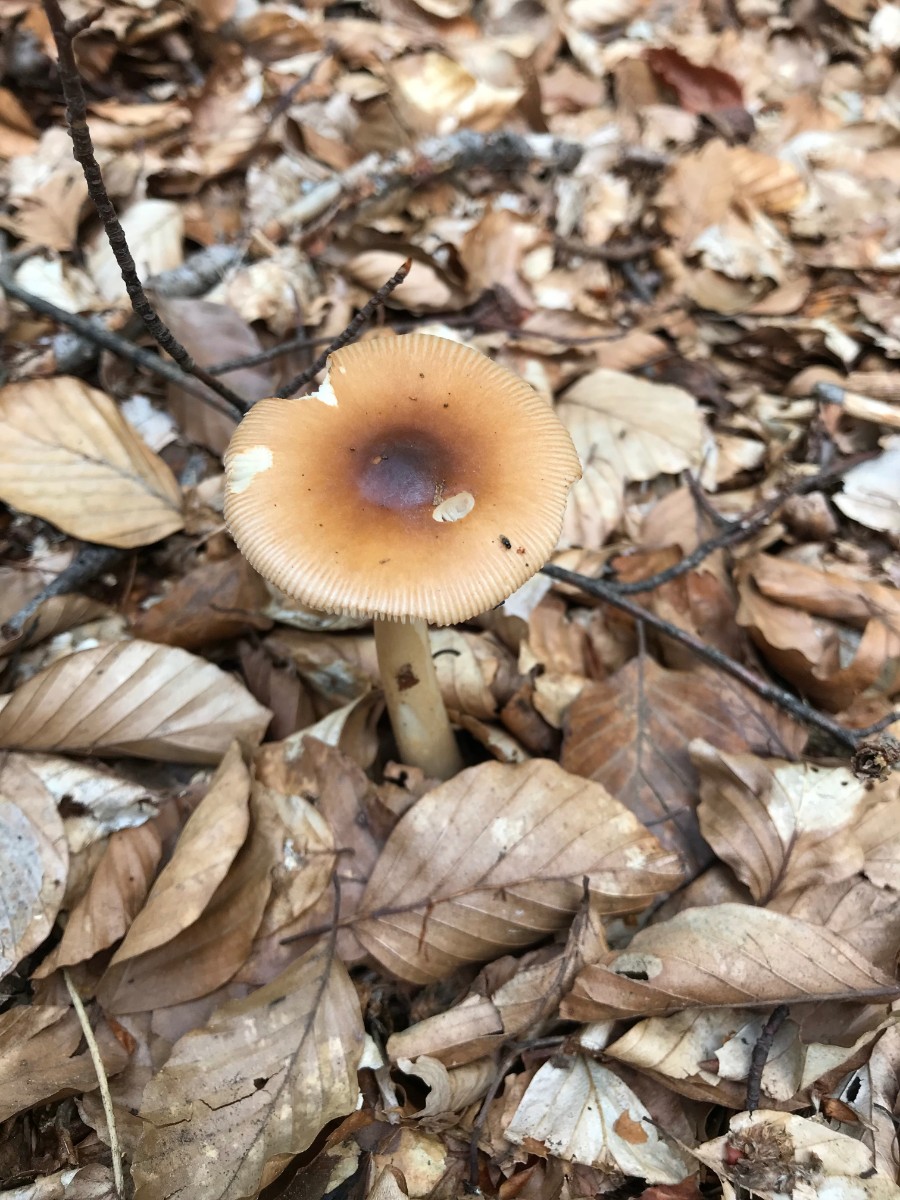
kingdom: Fungi
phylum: Basidiomycota
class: Agaricomycetes
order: Agaricales
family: Amanitaceae
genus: Amanita
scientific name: Amanita fulva
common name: brun kam-fluesvamp
